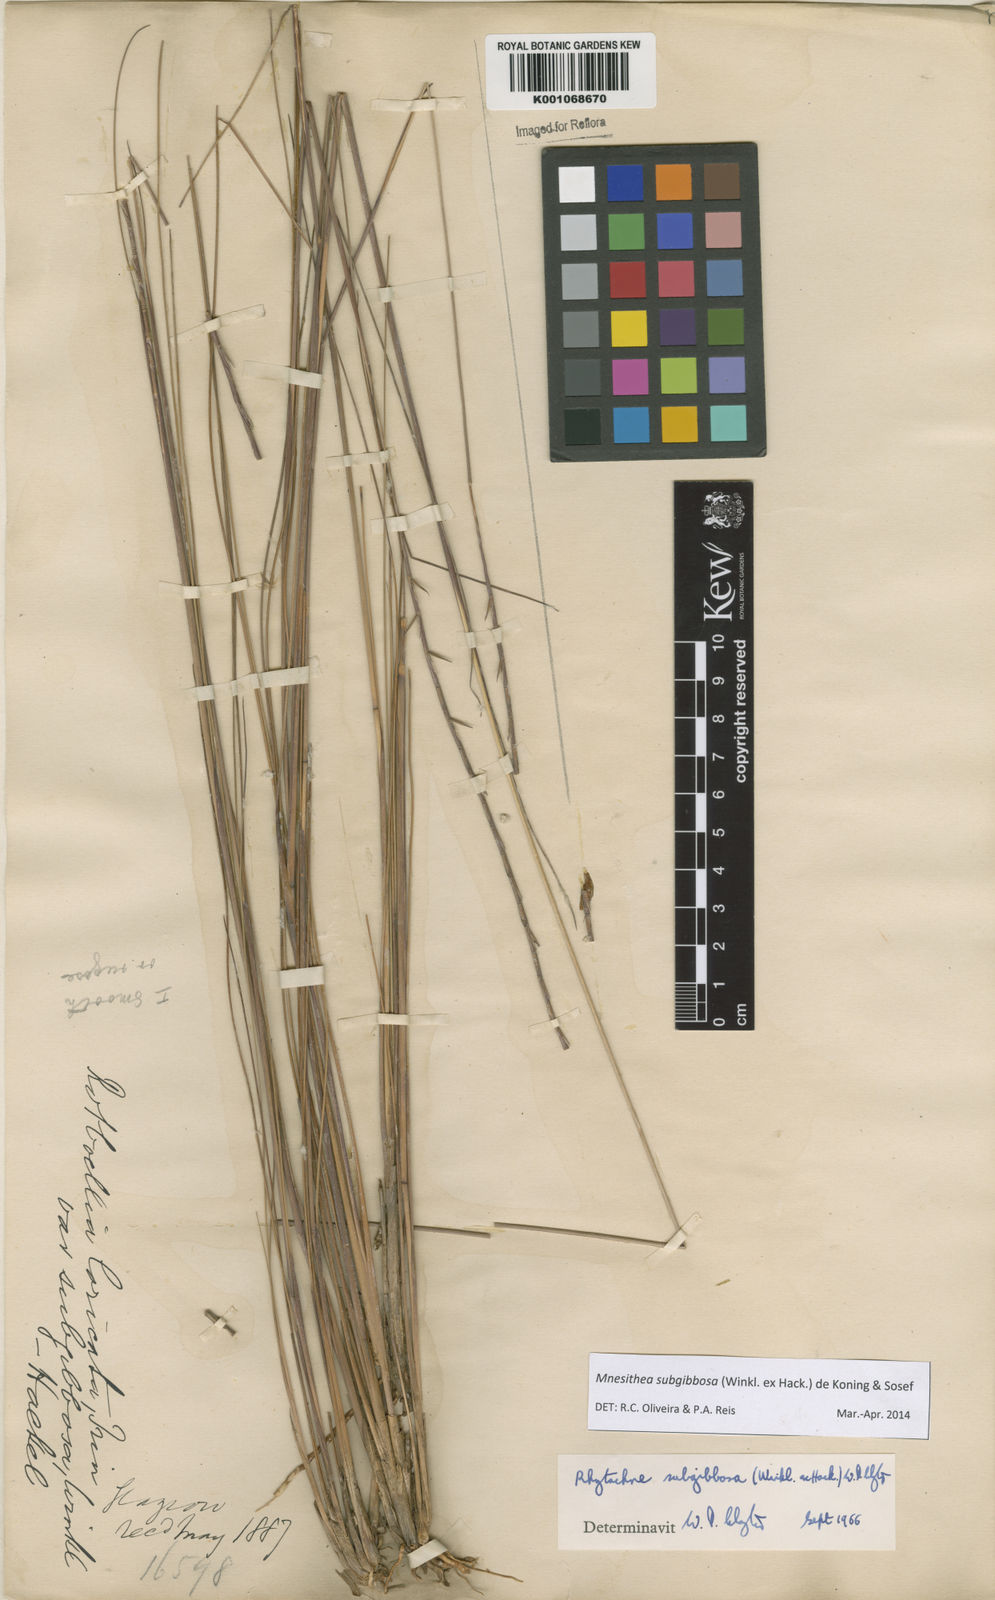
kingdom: Plantae
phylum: Tracheophyta
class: Liliopsida
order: Poales
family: Poaceae
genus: Rhytachne
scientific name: Rhytachne subgibbosa
